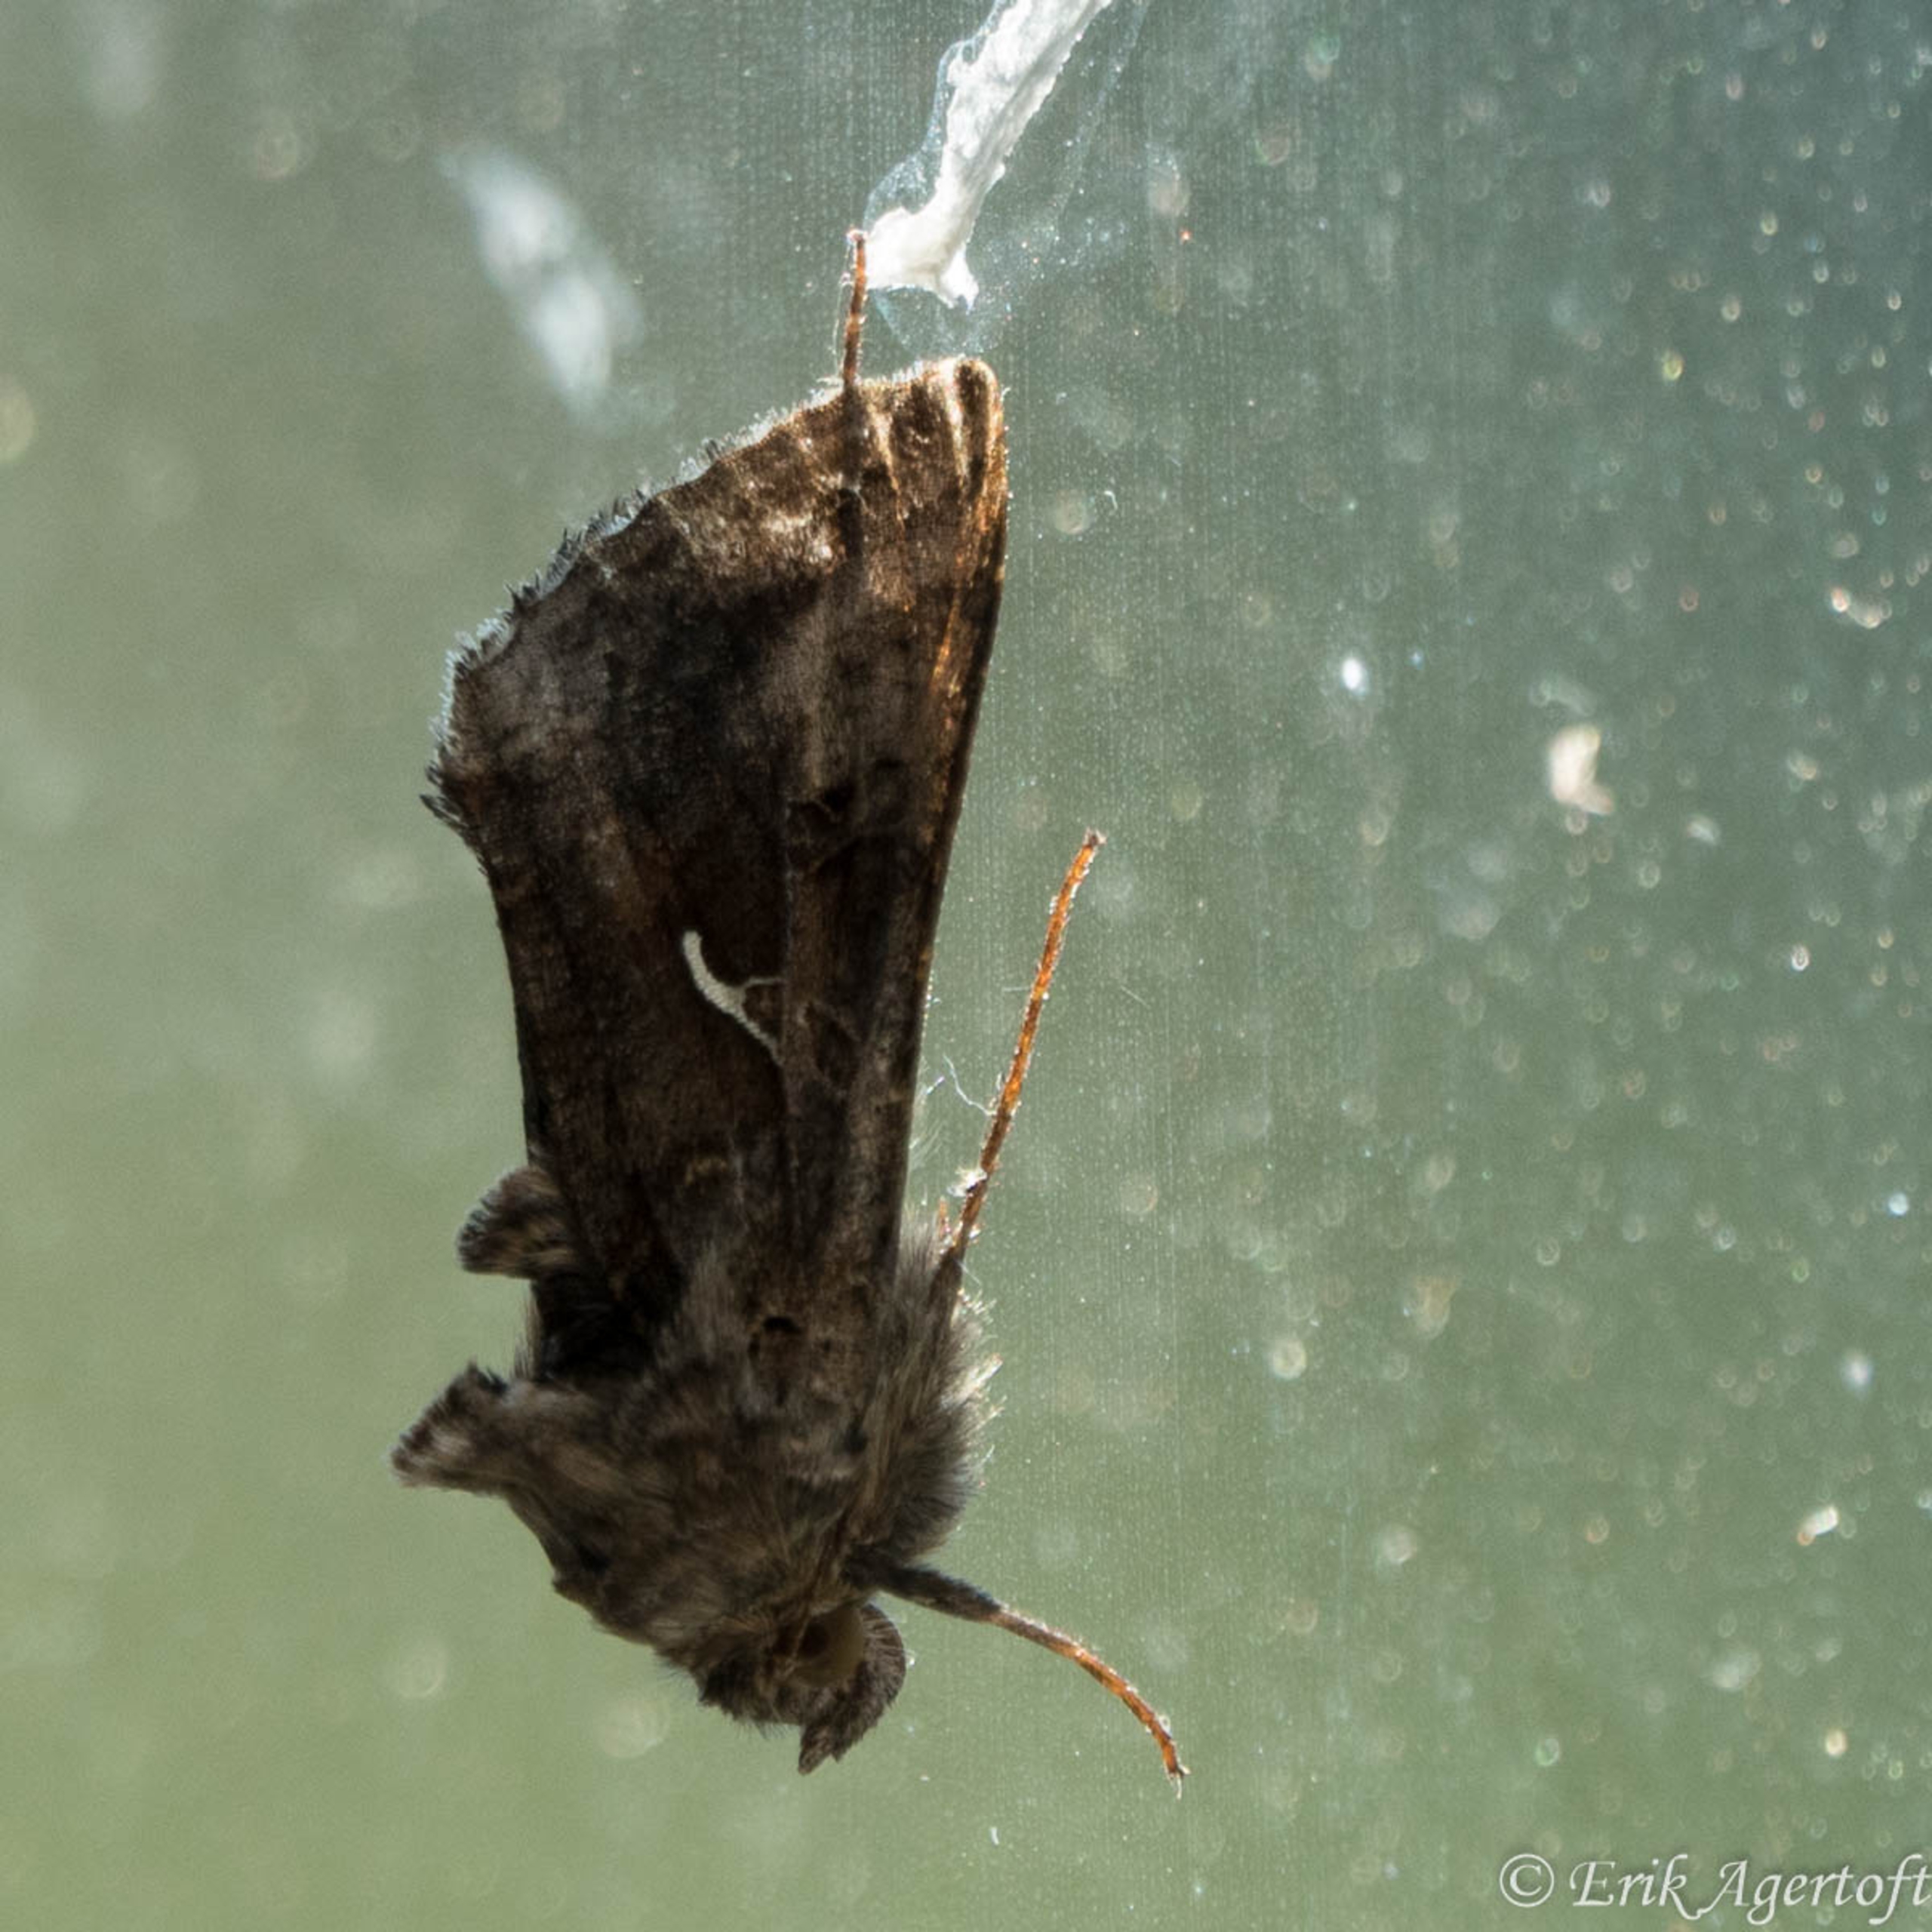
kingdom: Animalia
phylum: Arthropoda
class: Insecta
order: Lepidoptera
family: Noctuidae
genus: Autographa
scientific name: Autographa gamma
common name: Gammaugle
